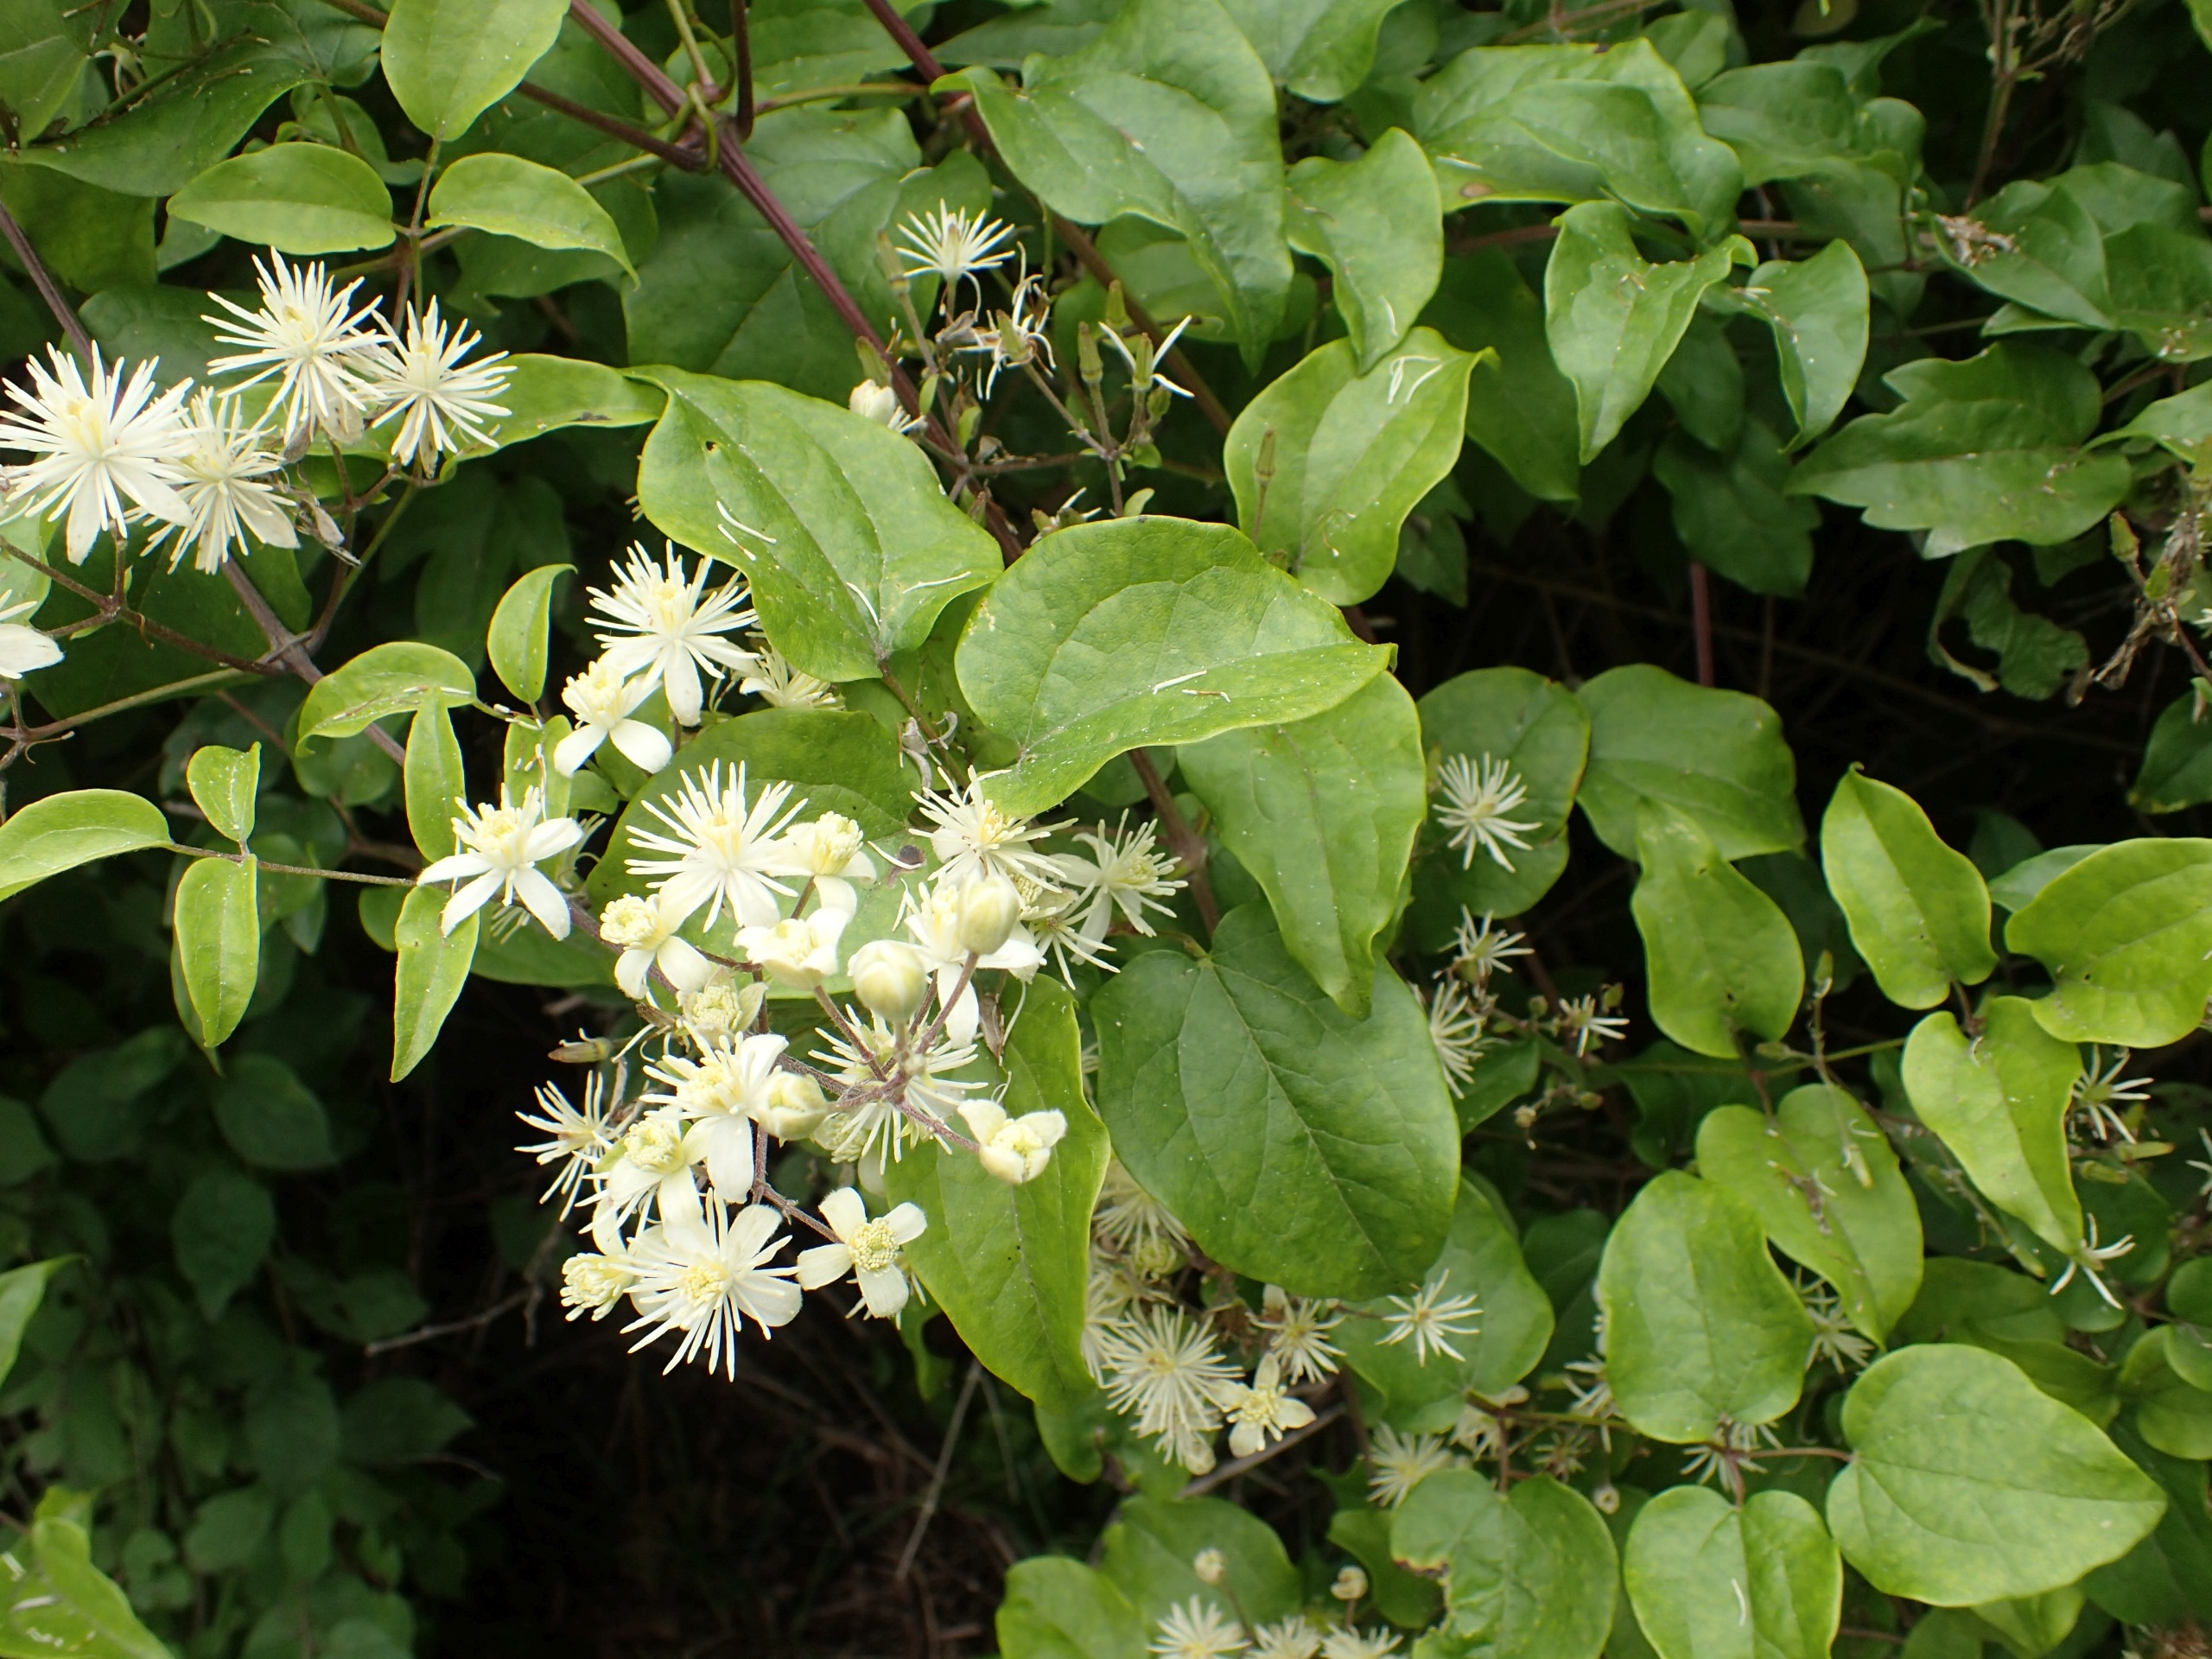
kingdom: Plantae
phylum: Tracheophyta
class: Magnoliopsida
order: Ranunculales
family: Ranunculaceae
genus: Clematis
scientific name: Clematis vitalba
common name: Skovranke
